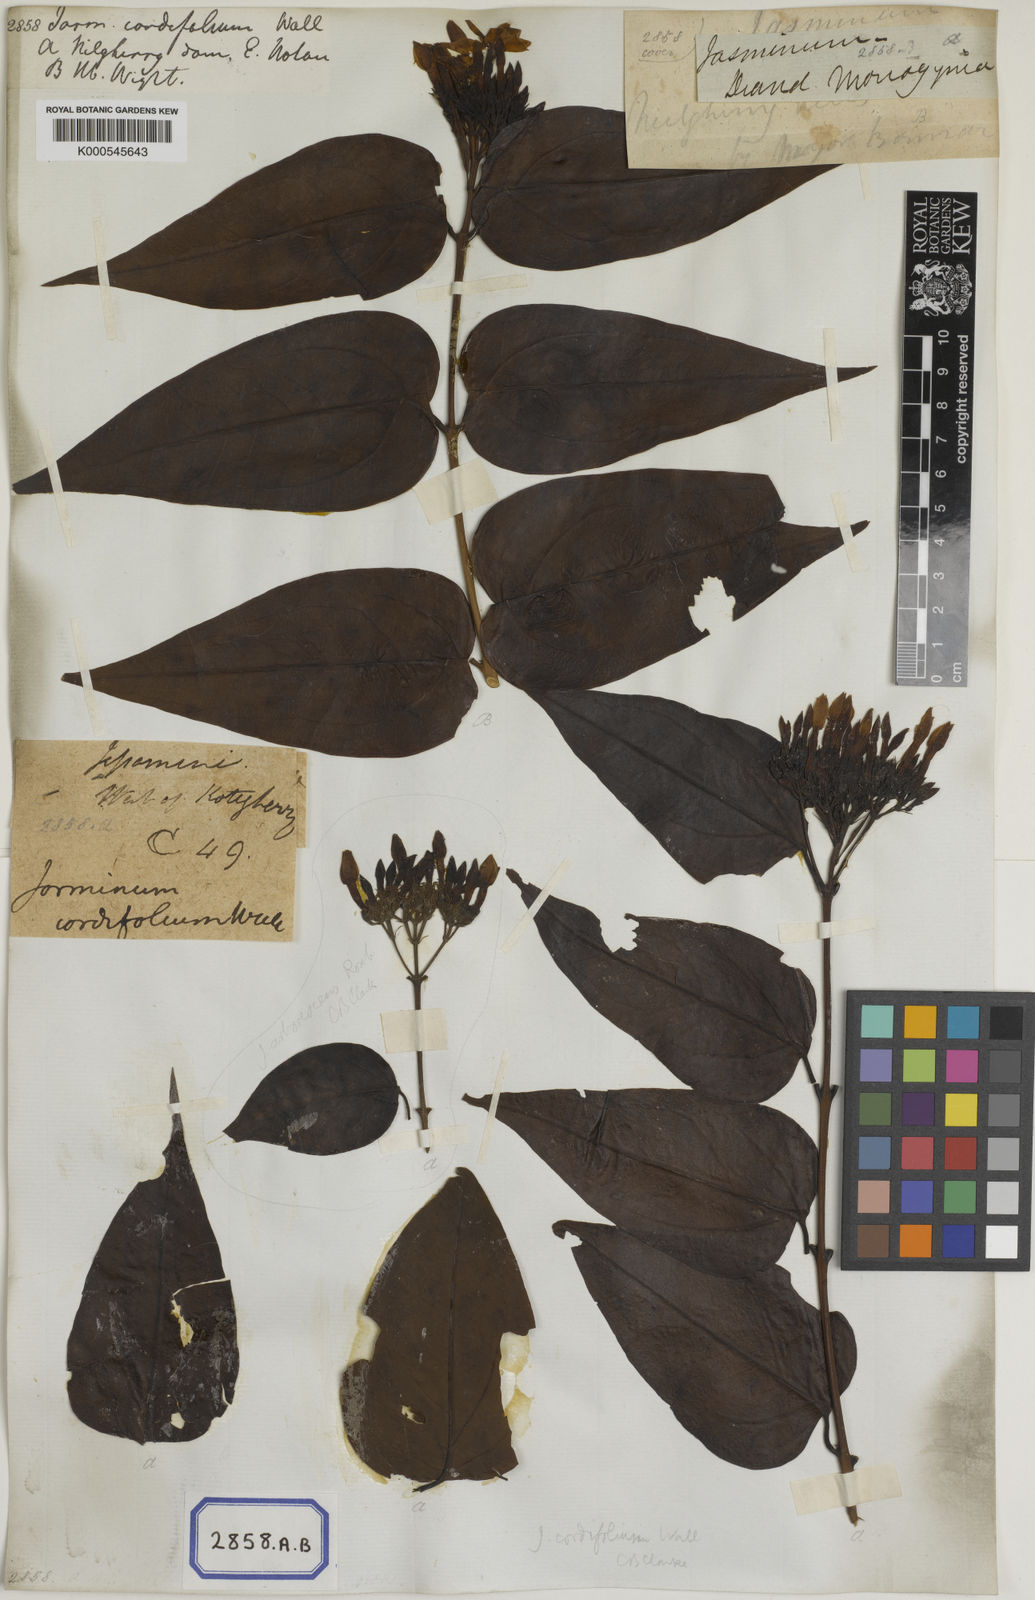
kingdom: Plantae
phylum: Tracheophyta
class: Magnoliopsida
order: Lamiales
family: Oleaceae
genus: Jasminum
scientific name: Jasminum cordifolium
